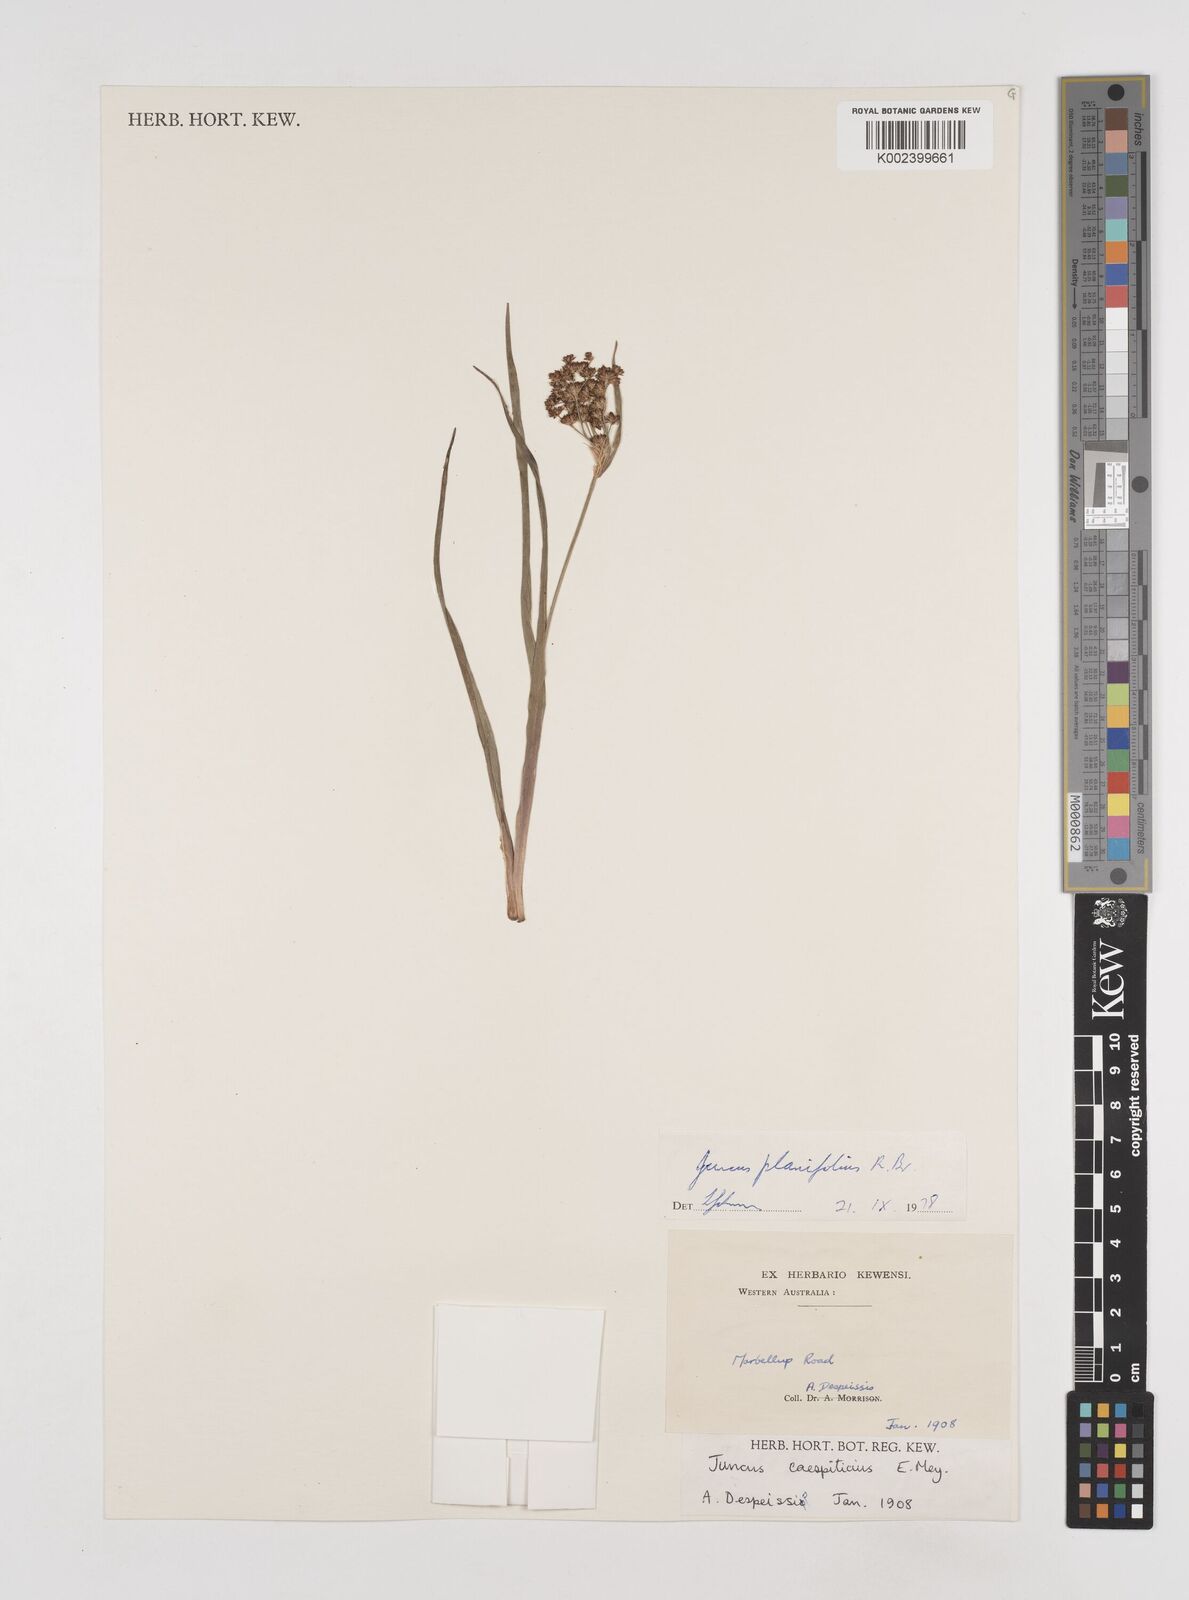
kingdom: Plantae
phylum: Tracheophyta
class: Liliopsida
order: Poales
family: Juncaceae
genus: Juncus
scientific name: Juncus planifolius
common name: Broadleaf rush
